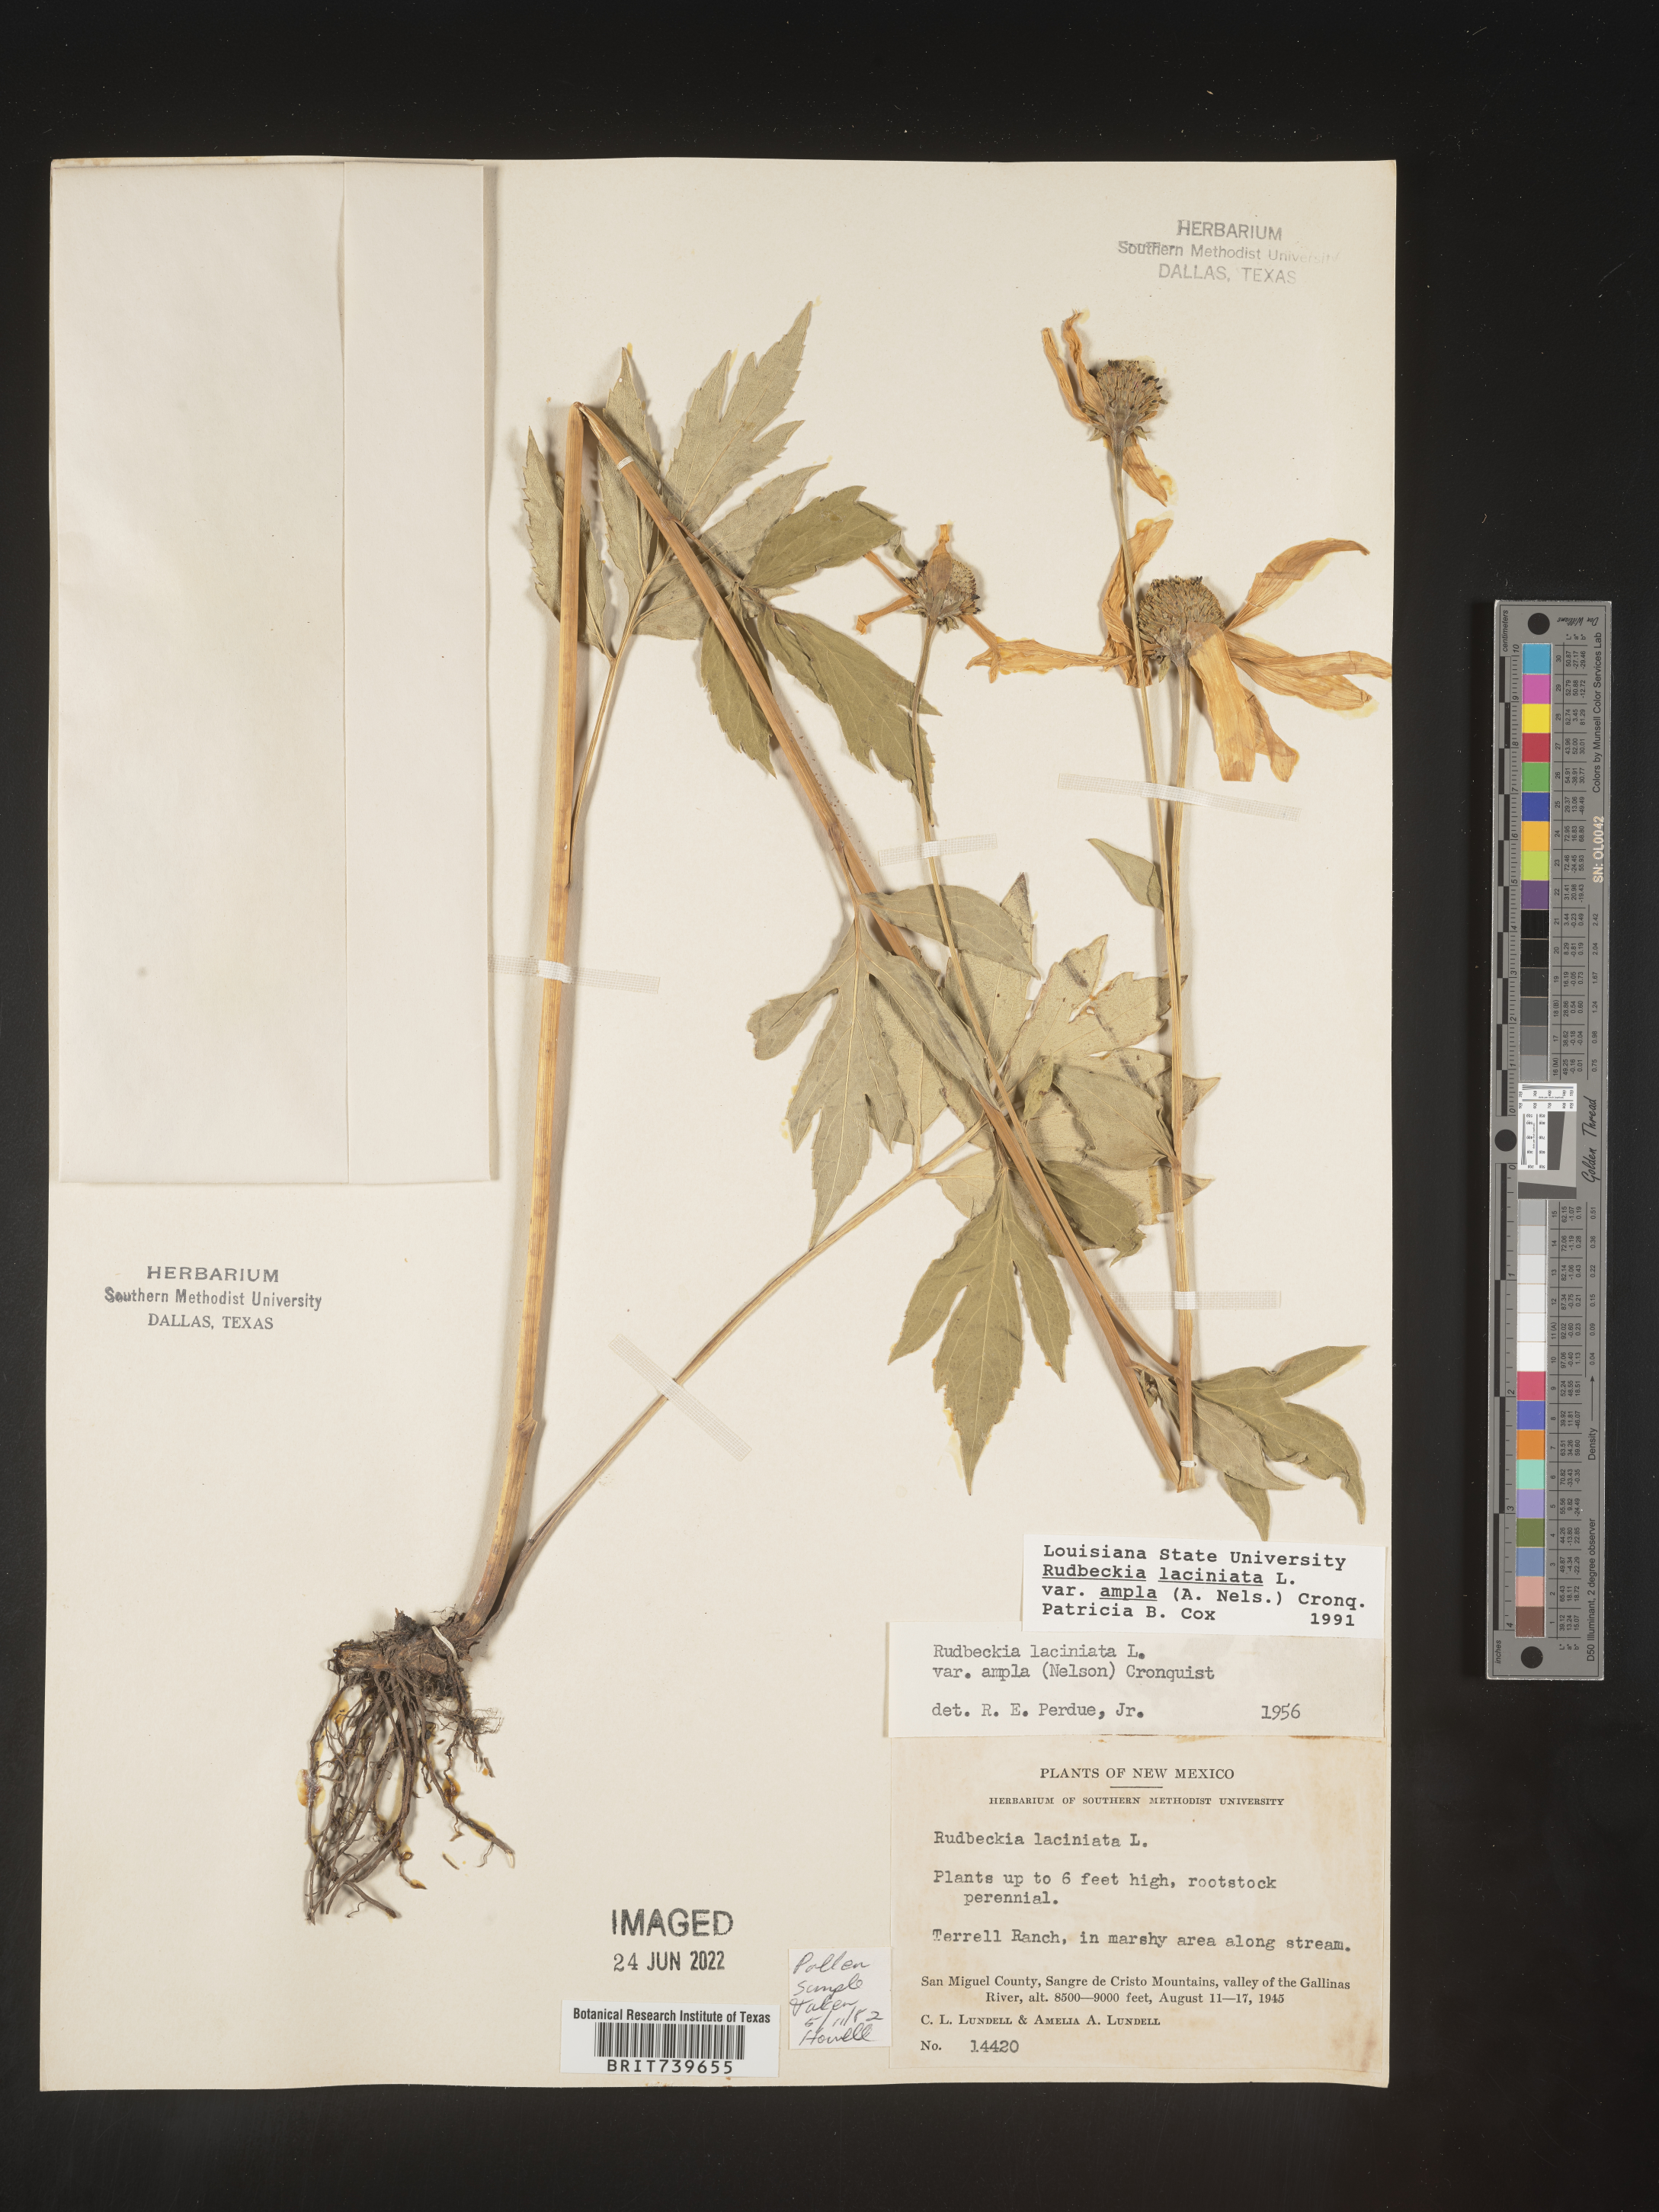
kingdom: Plantae
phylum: Tracheophyta
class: Magnoliopsida
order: Asterales
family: Asteraceae
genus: Rudbeckia
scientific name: Rudbeckia laciniata
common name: Coneflower
